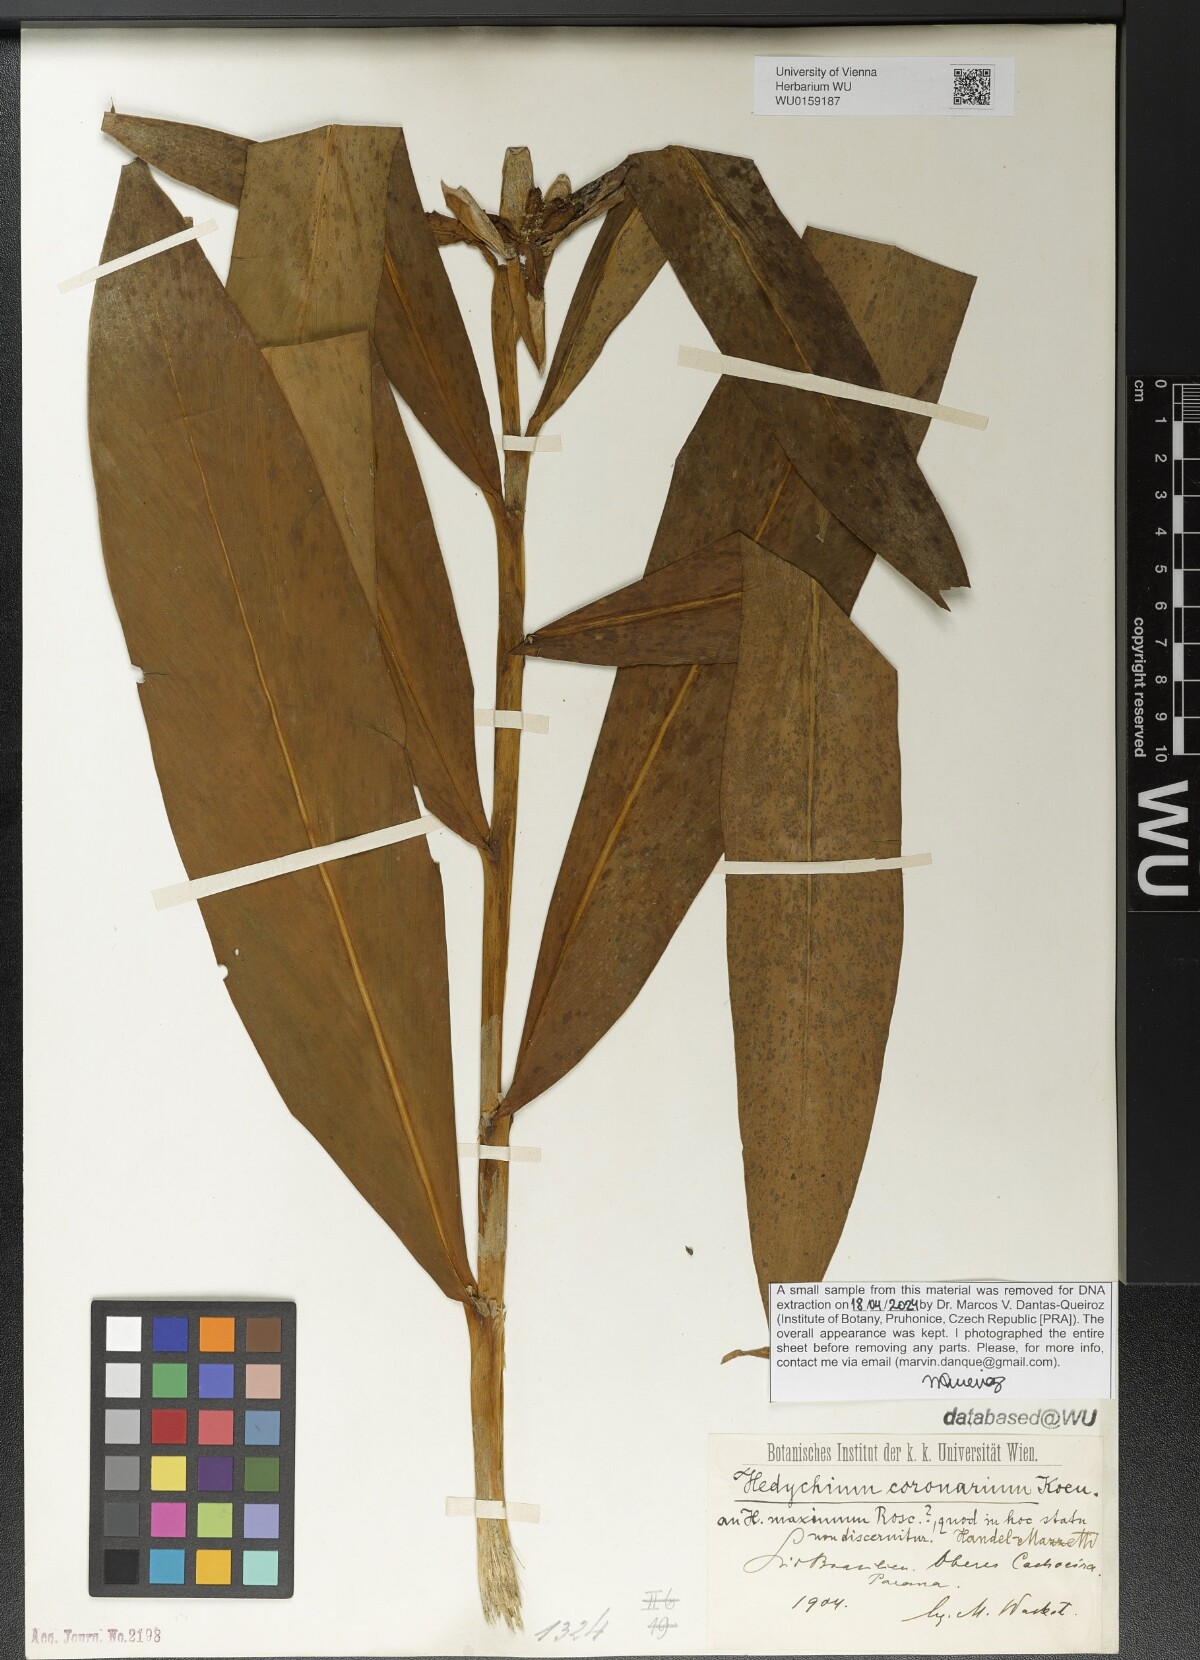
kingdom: Plantae
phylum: Tracheophyta
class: Liliopsida
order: Zingiberales
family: Zingiberaceae
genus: Hedychium
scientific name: Hedychium coronarium
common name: White garland-lily
